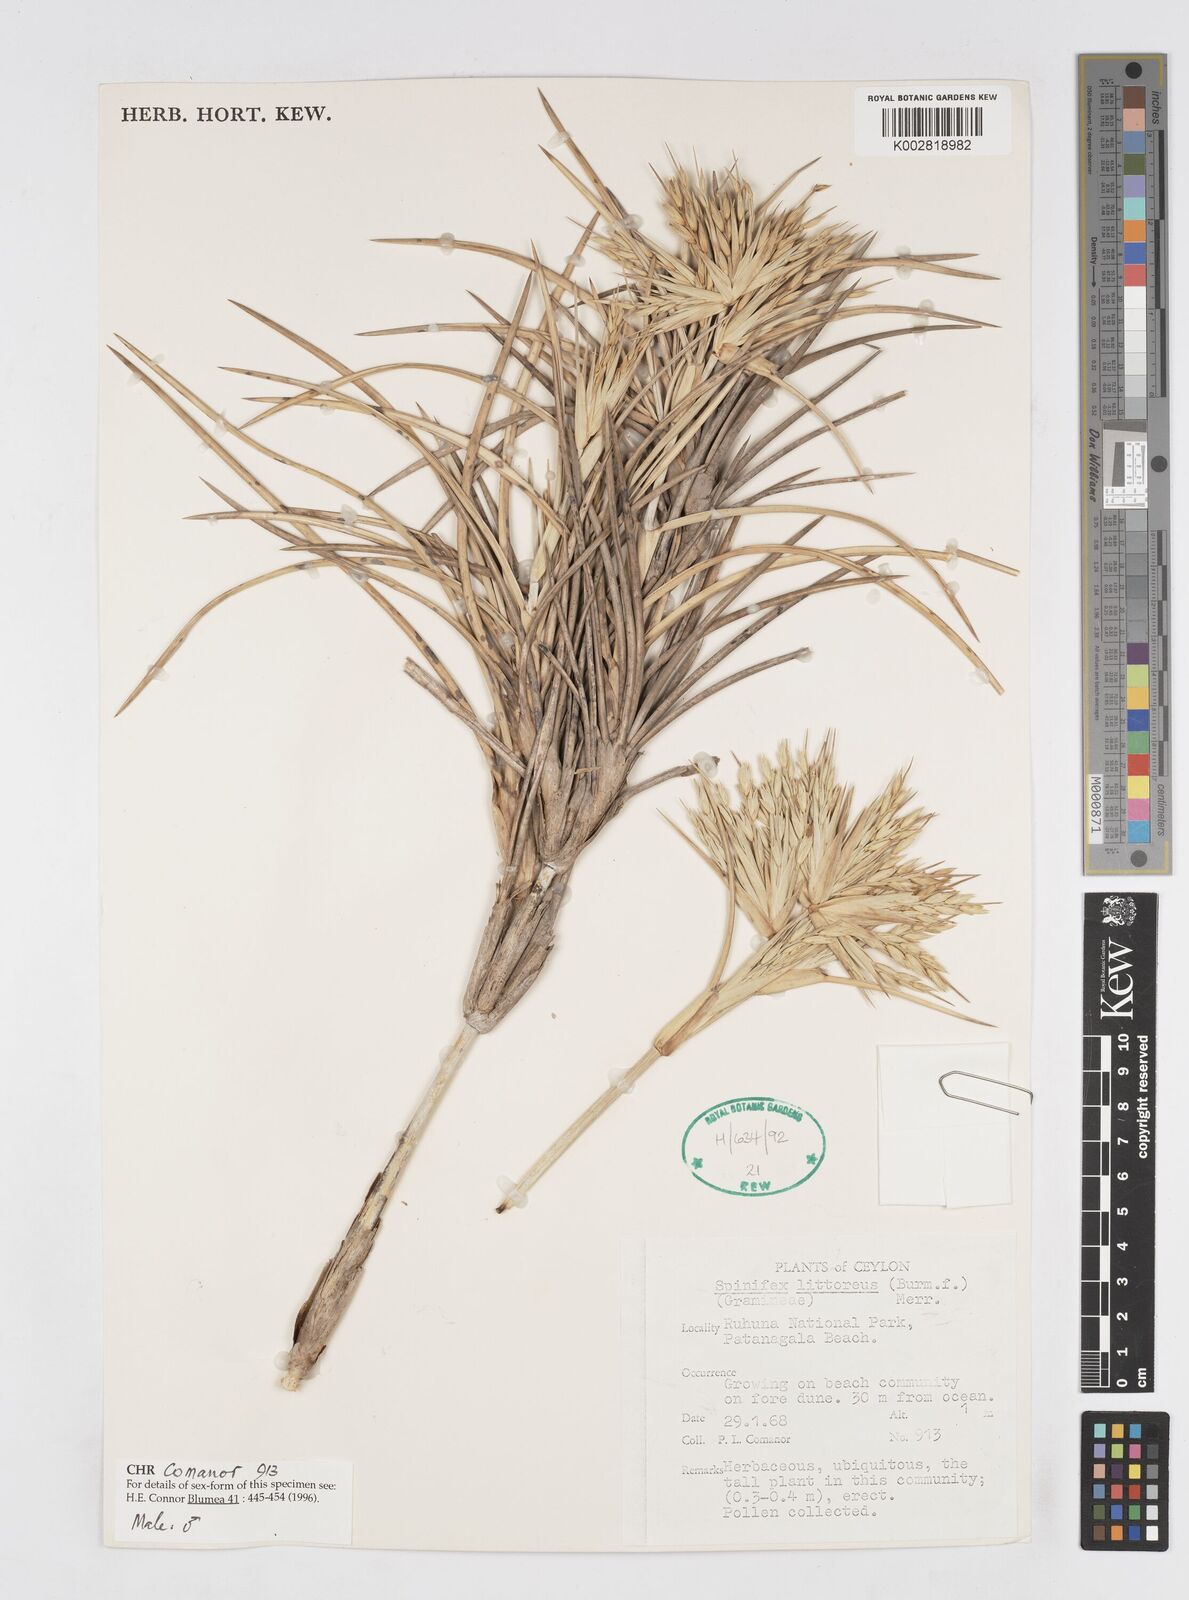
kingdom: Plantae
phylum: Tracheophyta
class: Liliopsida
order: Poales
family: Poaceae
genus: Spinifex
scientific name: Spinifex littoreus
